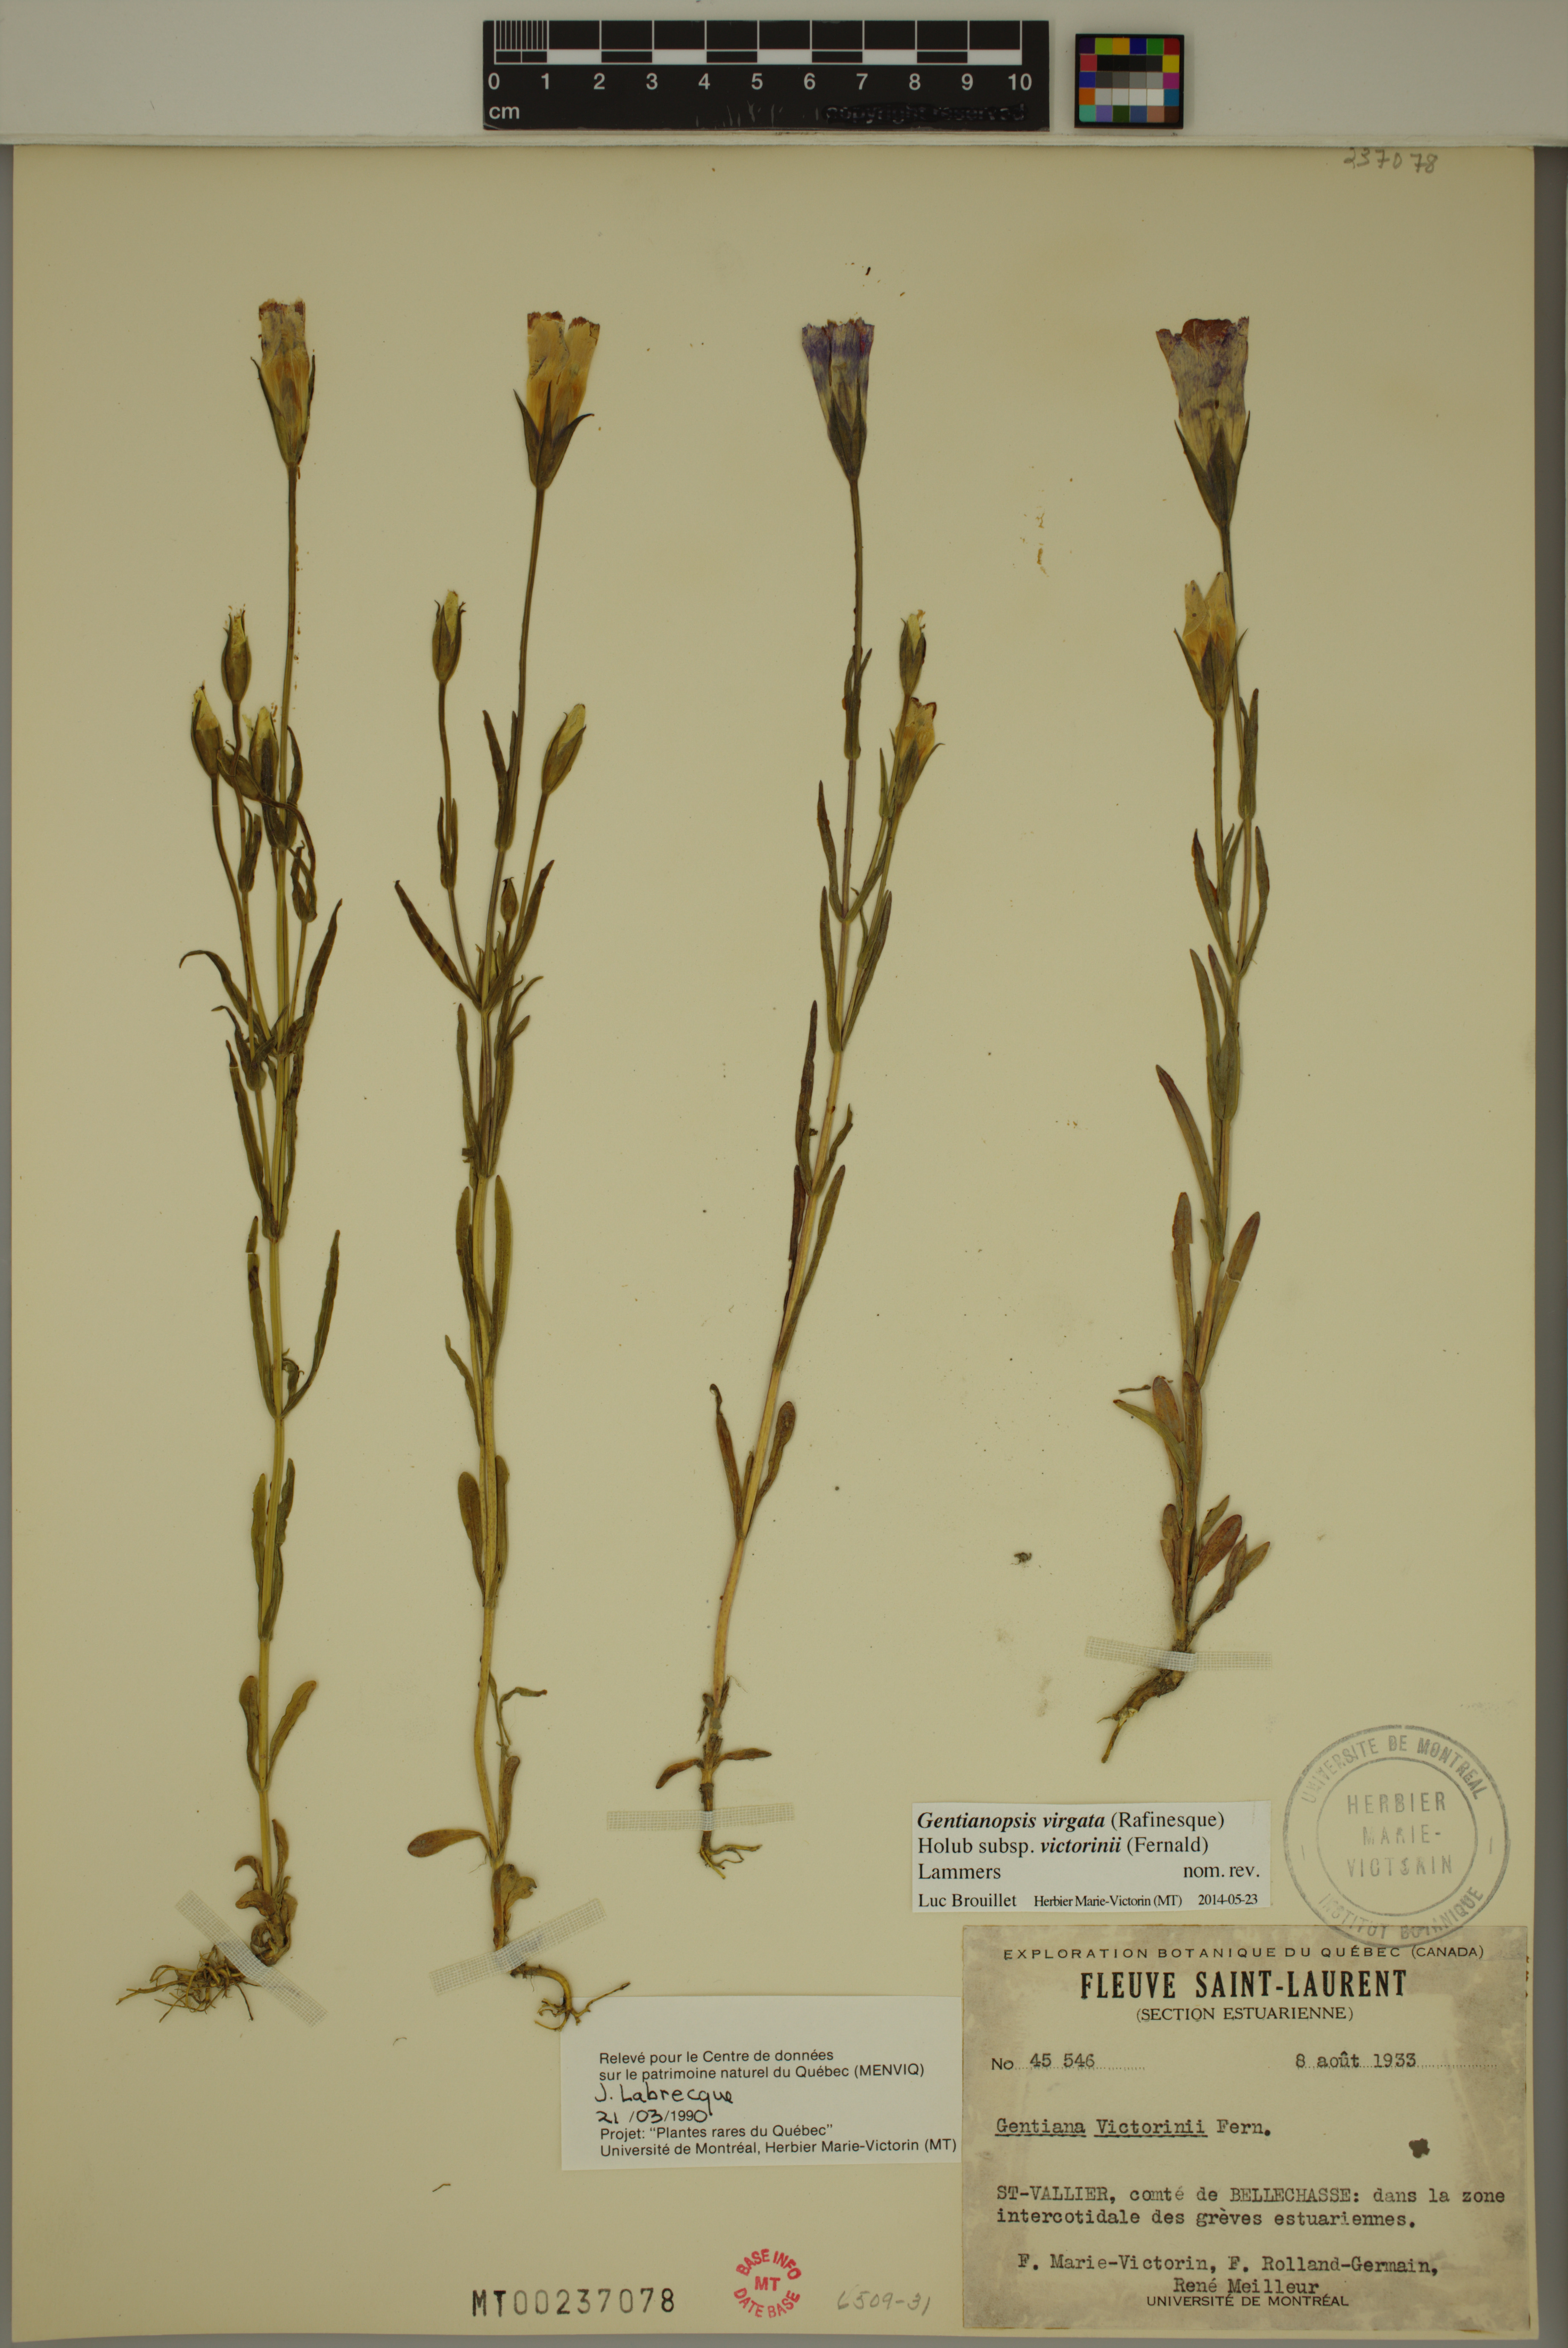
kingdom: Plantae
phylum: Tracheophyta
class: Magnoliopsida
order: Gentianales
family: Gentianaceae
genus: Gentianopsis
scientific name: Gentianopsis victorinii
